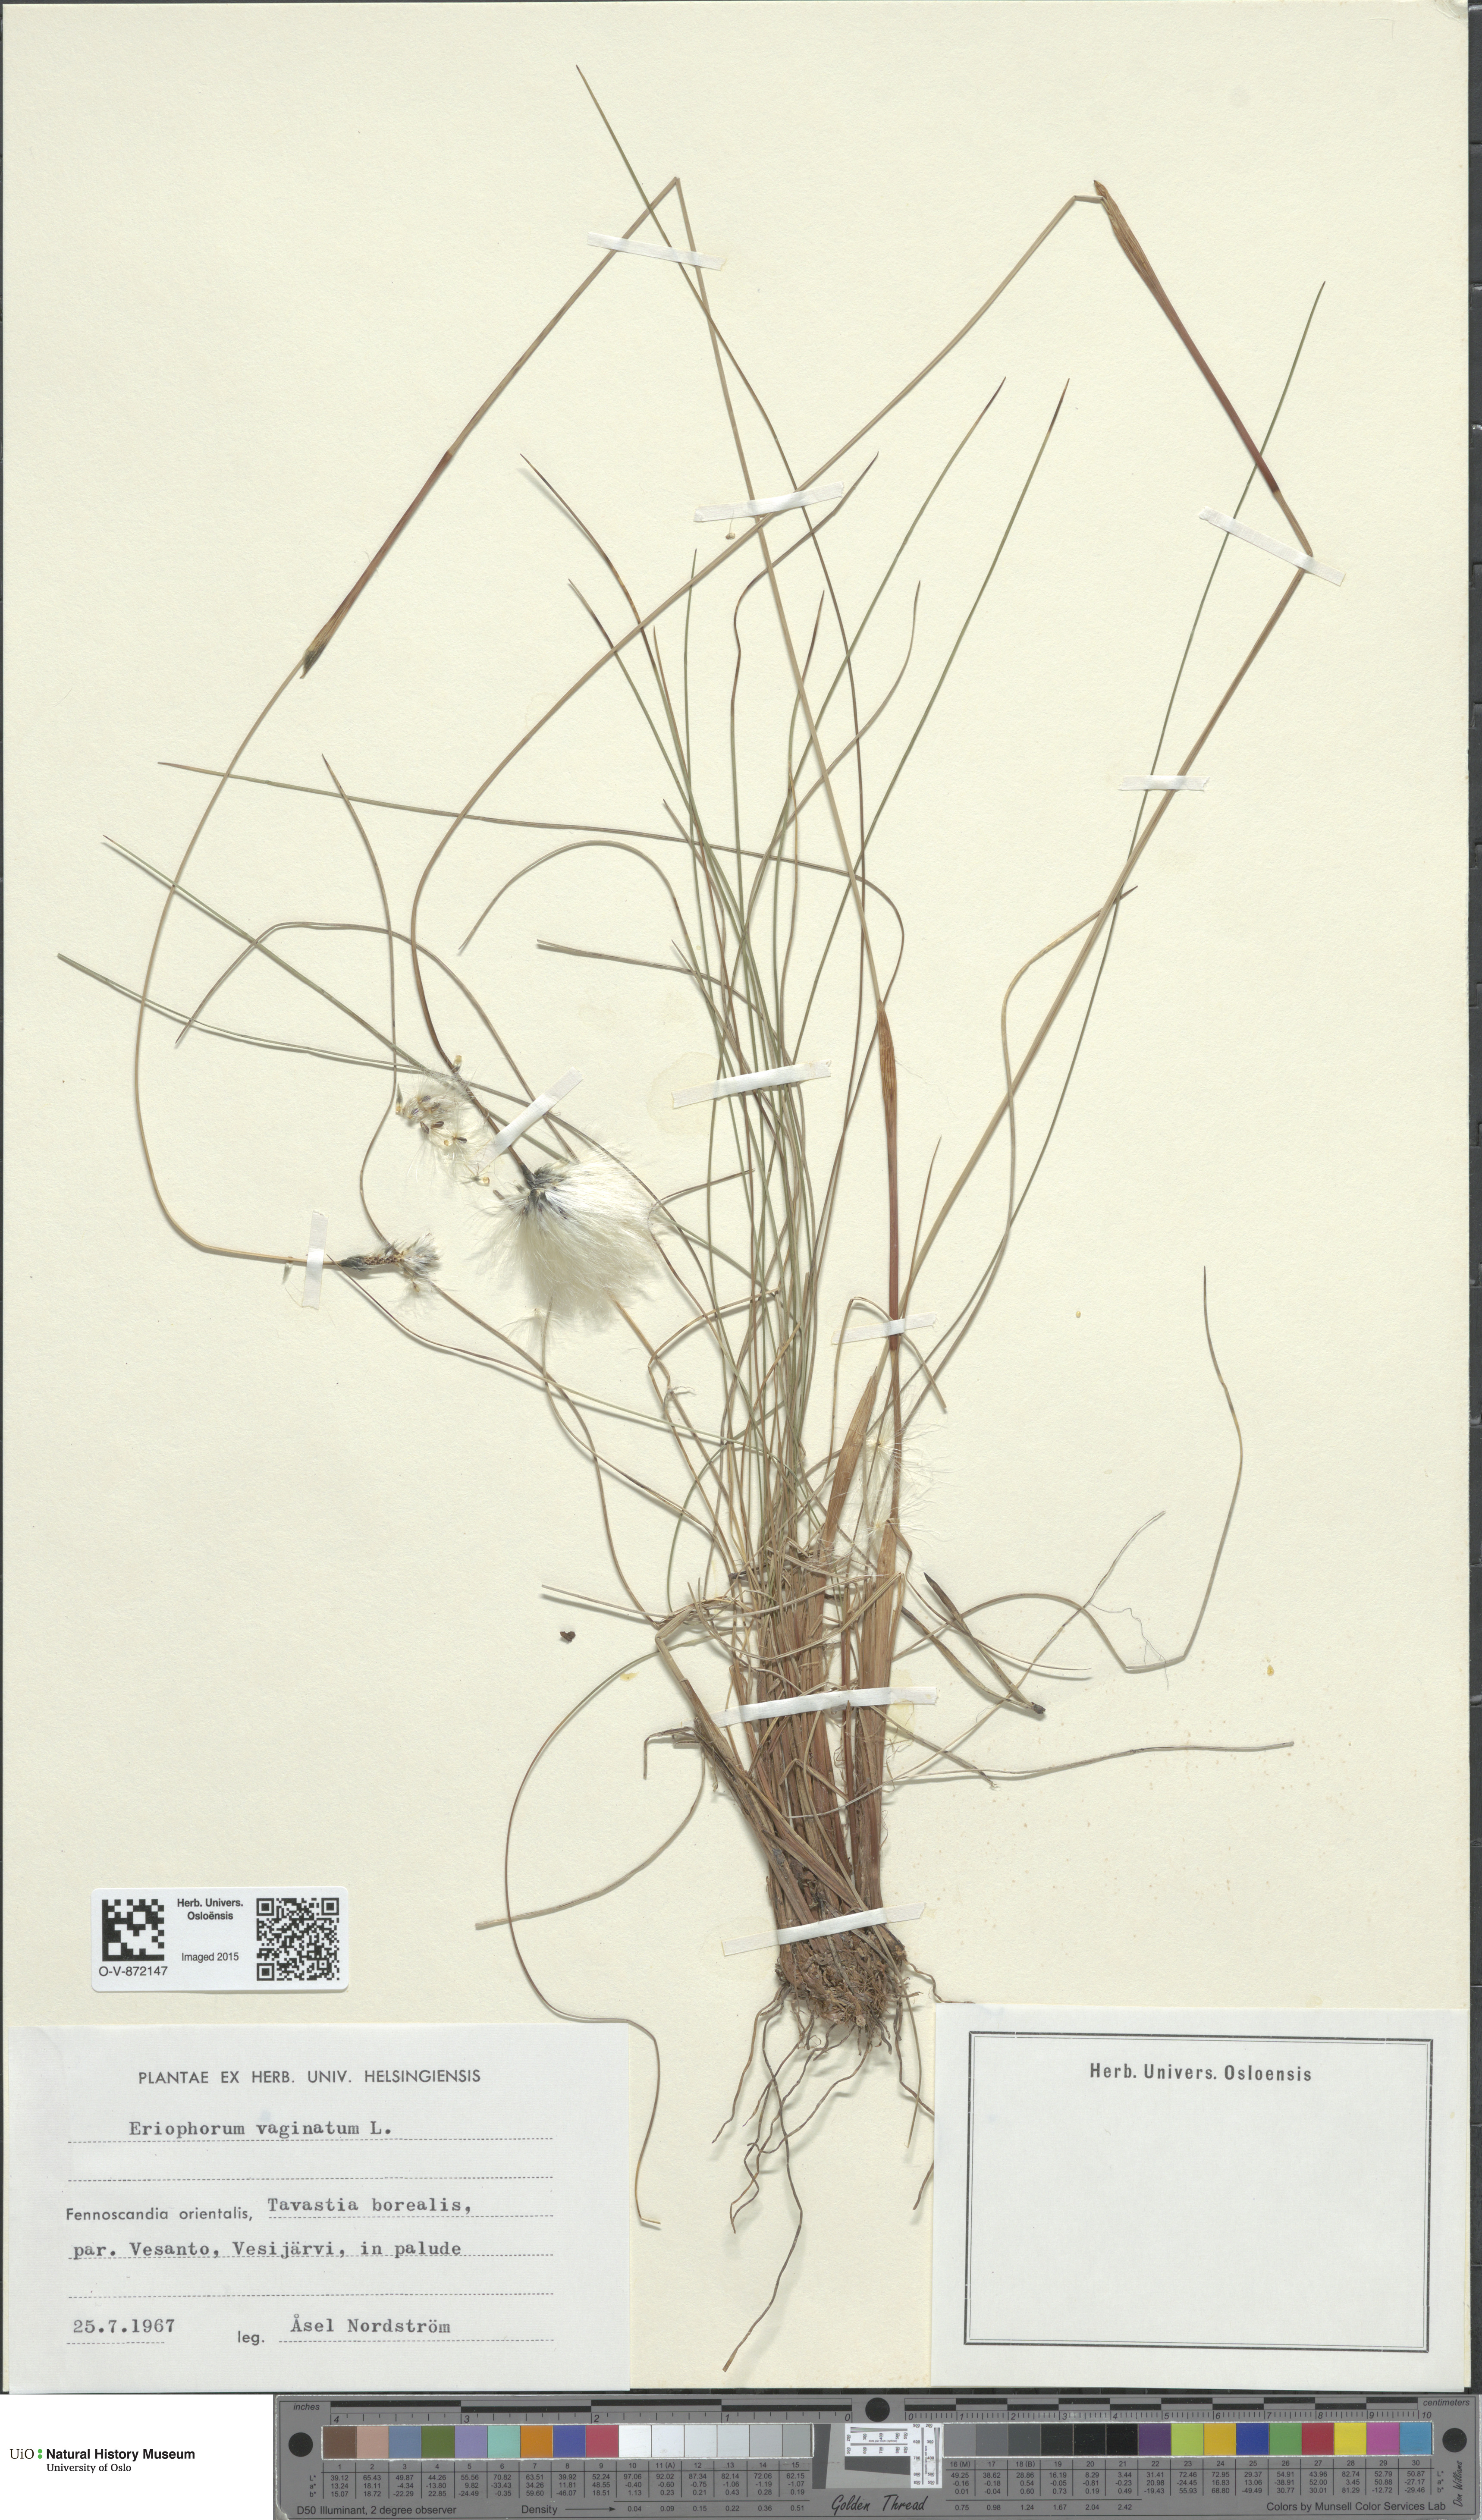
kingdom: Plantae
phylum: Tracheophyta
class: Liliopsida
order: Poales
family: Cyperaceae
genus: Eriophorum
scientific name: Eriophorum vaginatum
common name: Hare's-tail cottongrass
